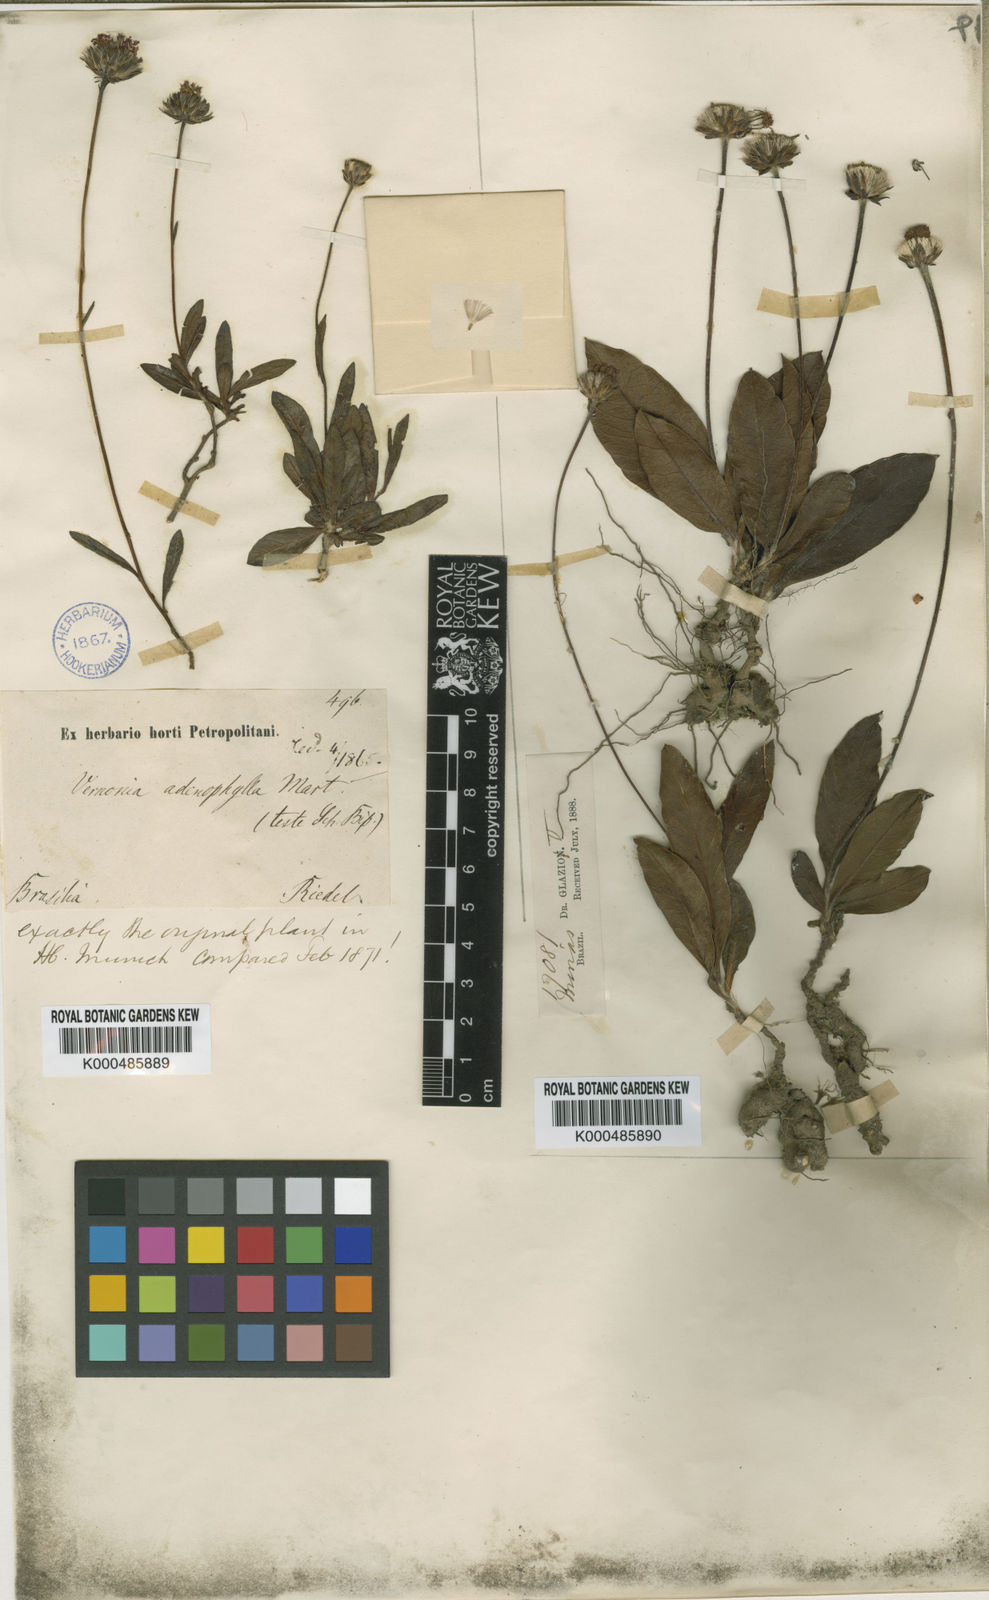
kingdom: Plantae
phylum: Tracheophyta
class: Magnoliopsida
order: Asterales
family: Asteraceae
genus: Lessingianthus
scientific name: Lessingianthus adenophyllus
